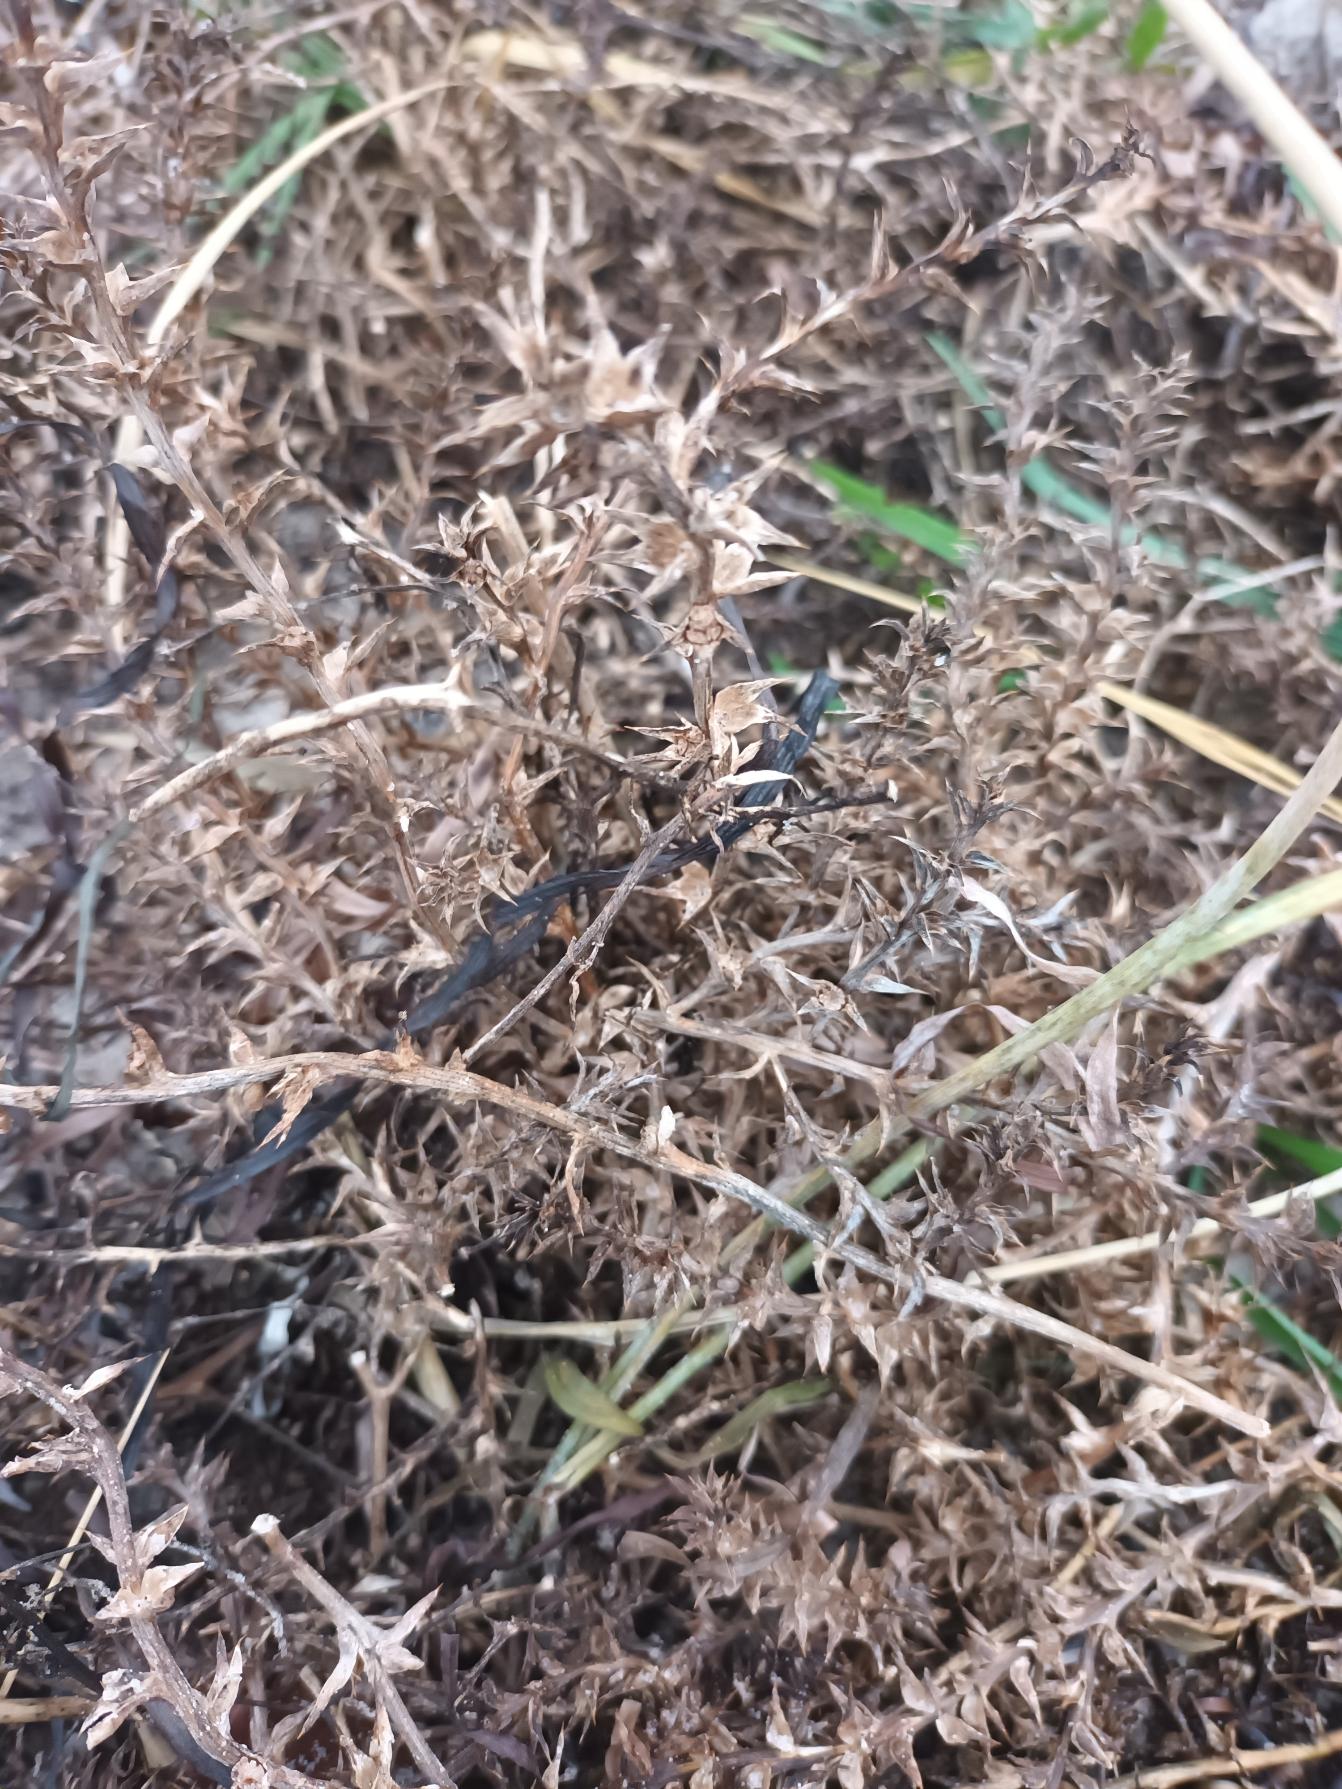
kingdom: Plantae
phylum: Tracheophyta
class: Magnoliopsida
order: Caryophyllales
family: Amaranthaceae
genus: Salsola
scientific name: Salsola kali
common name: Sodaurt
